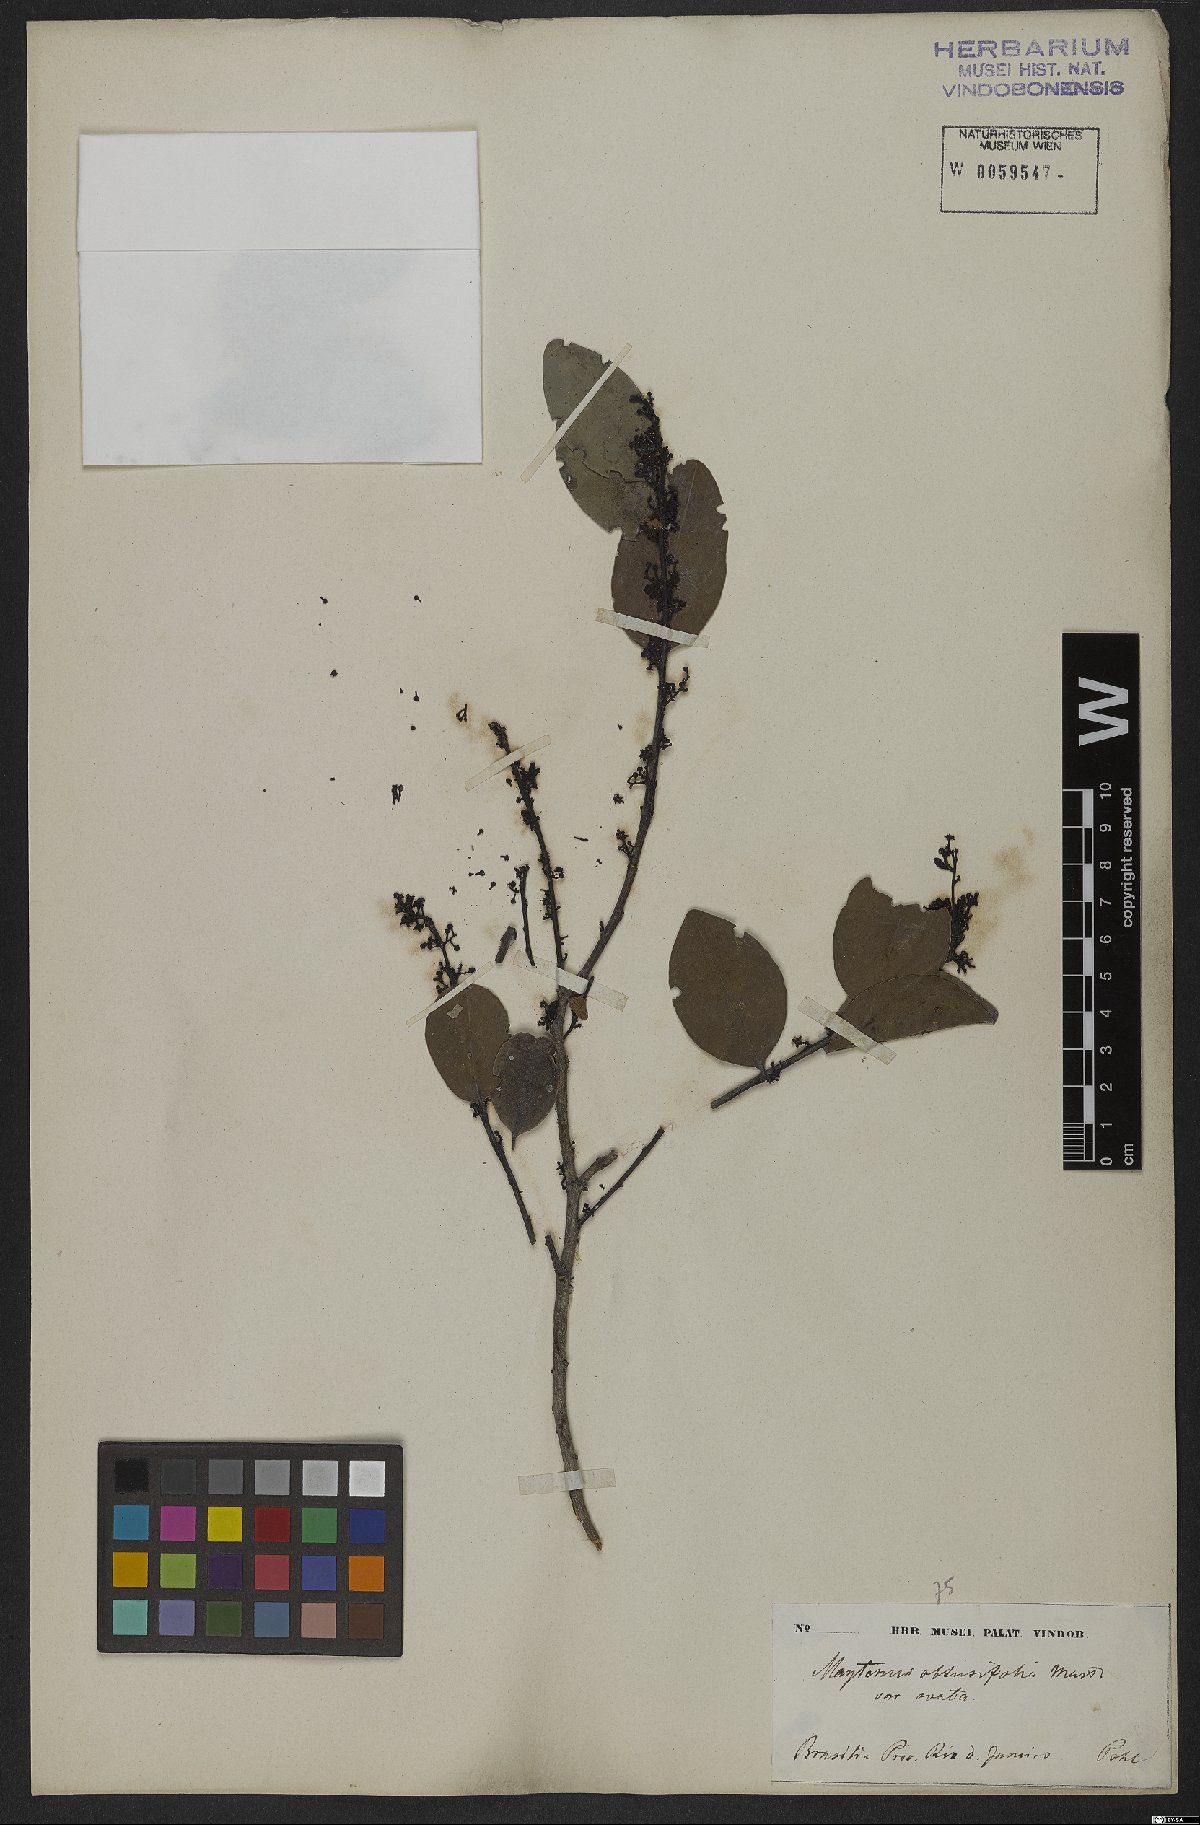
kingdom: Plantae
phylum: Tracheophyta
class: Magnoliopsida
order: Celastrales
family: Celastraceae
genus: Monteverdia
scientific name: Monteverdia obtusifolia
